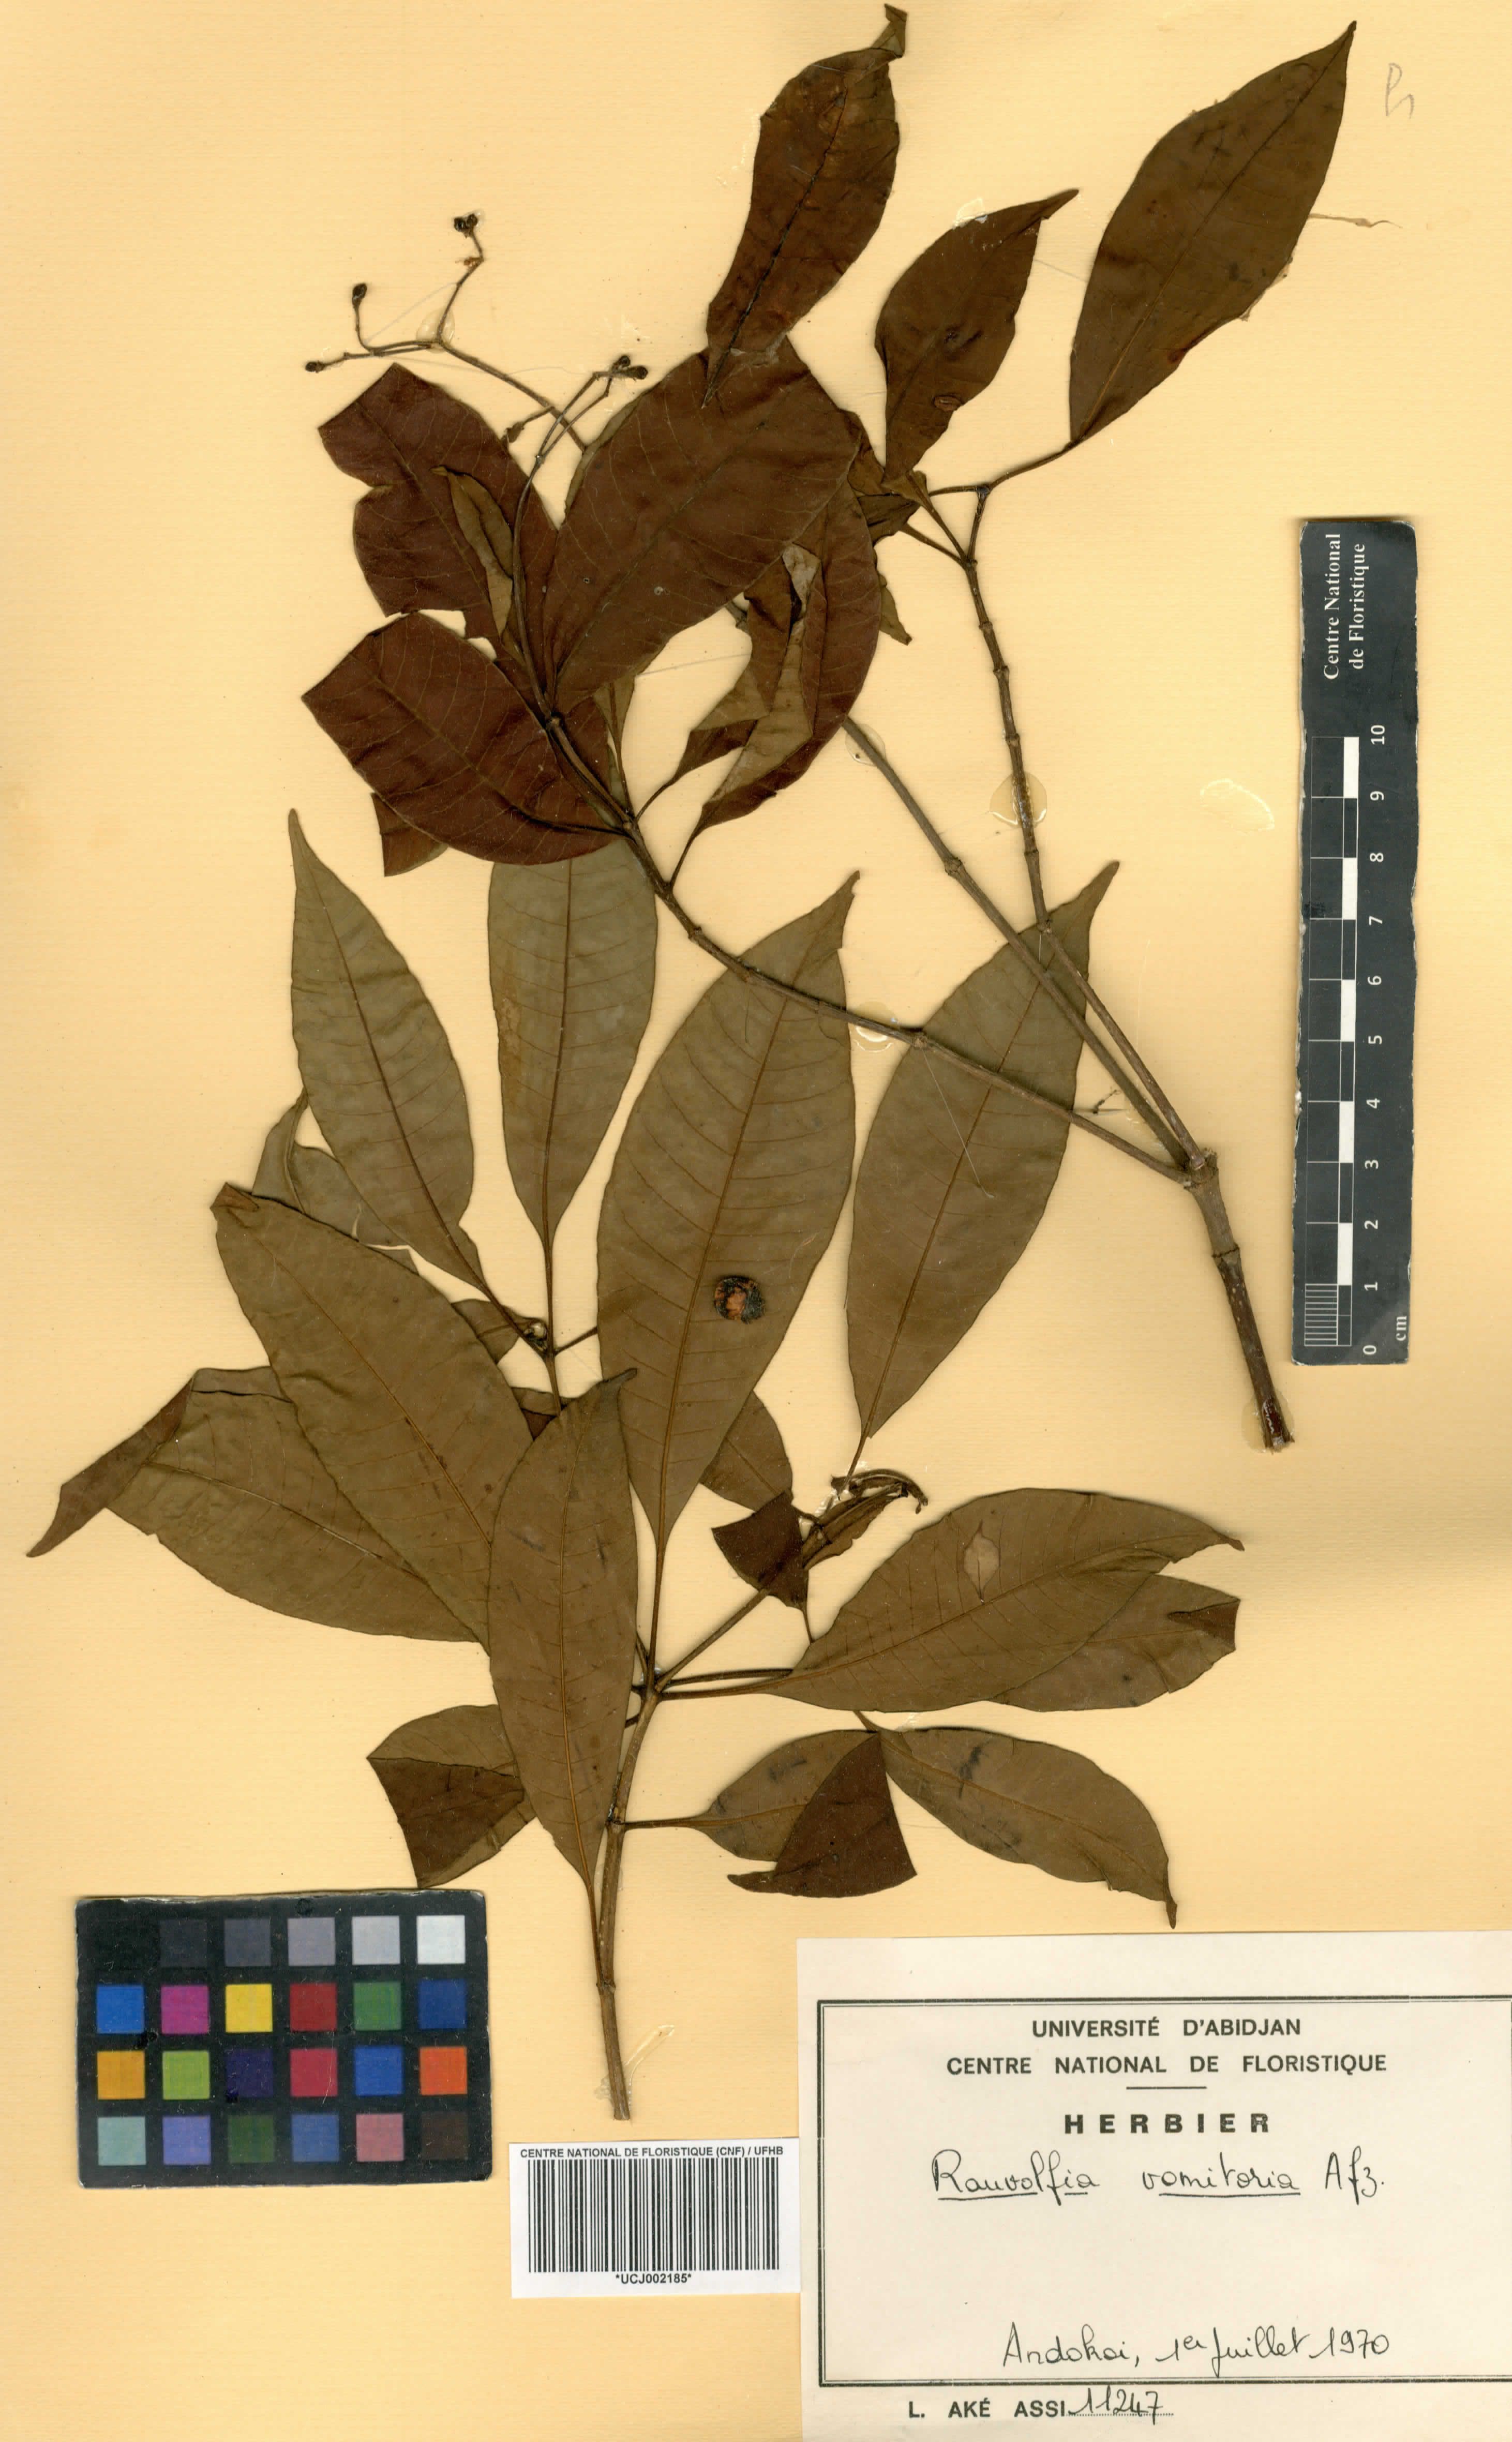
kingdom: Plantae
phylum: Tracheophyta
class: Magnoliopsida
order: Gentianales
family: Apocynaceae
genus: Rauvolfia
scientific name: Rauvolfia vomitoria
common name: Poison devil's-pepper
